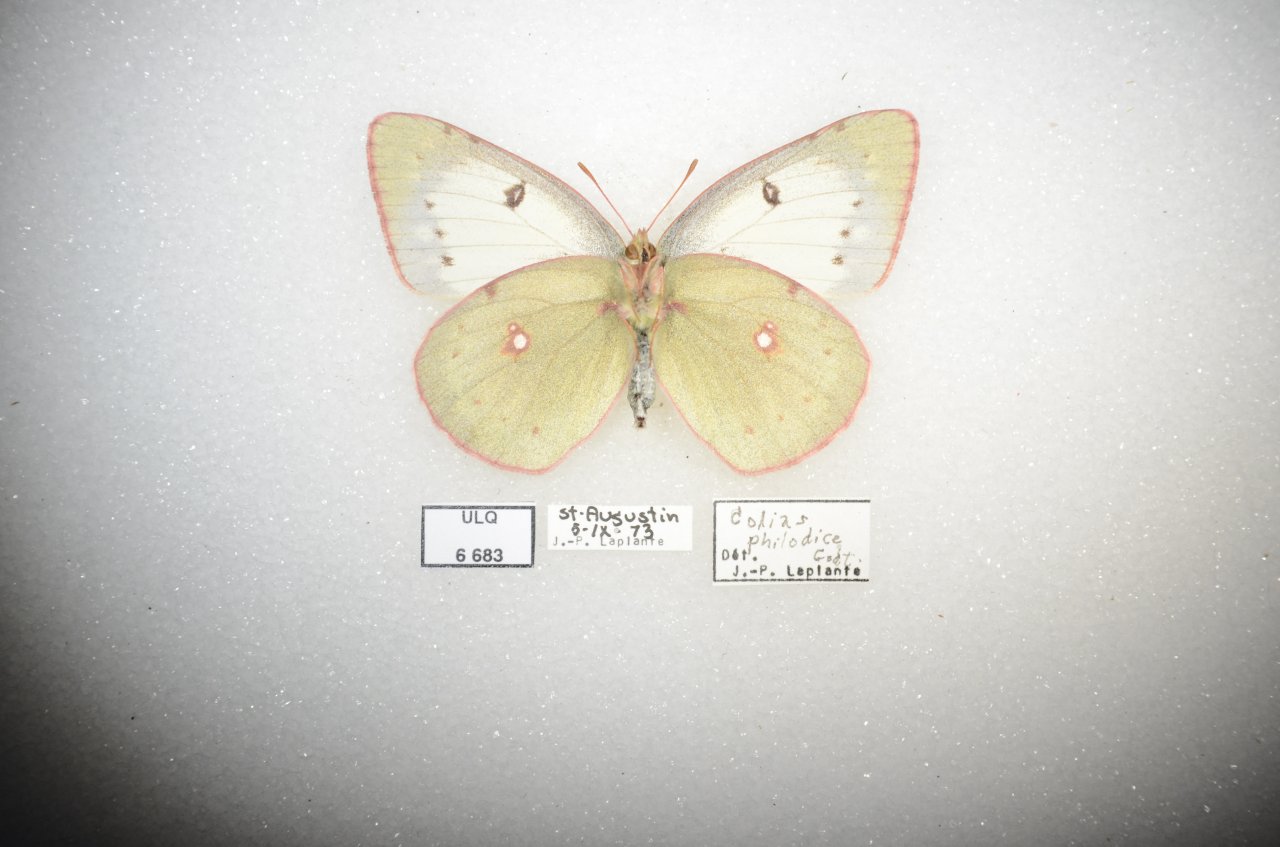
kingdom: Animalia
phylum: Arthropoda
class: Insecta
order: Lepidoptera
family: Pieridae
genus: Colias
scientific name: Colias philodice
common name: Clouded Sulphur
